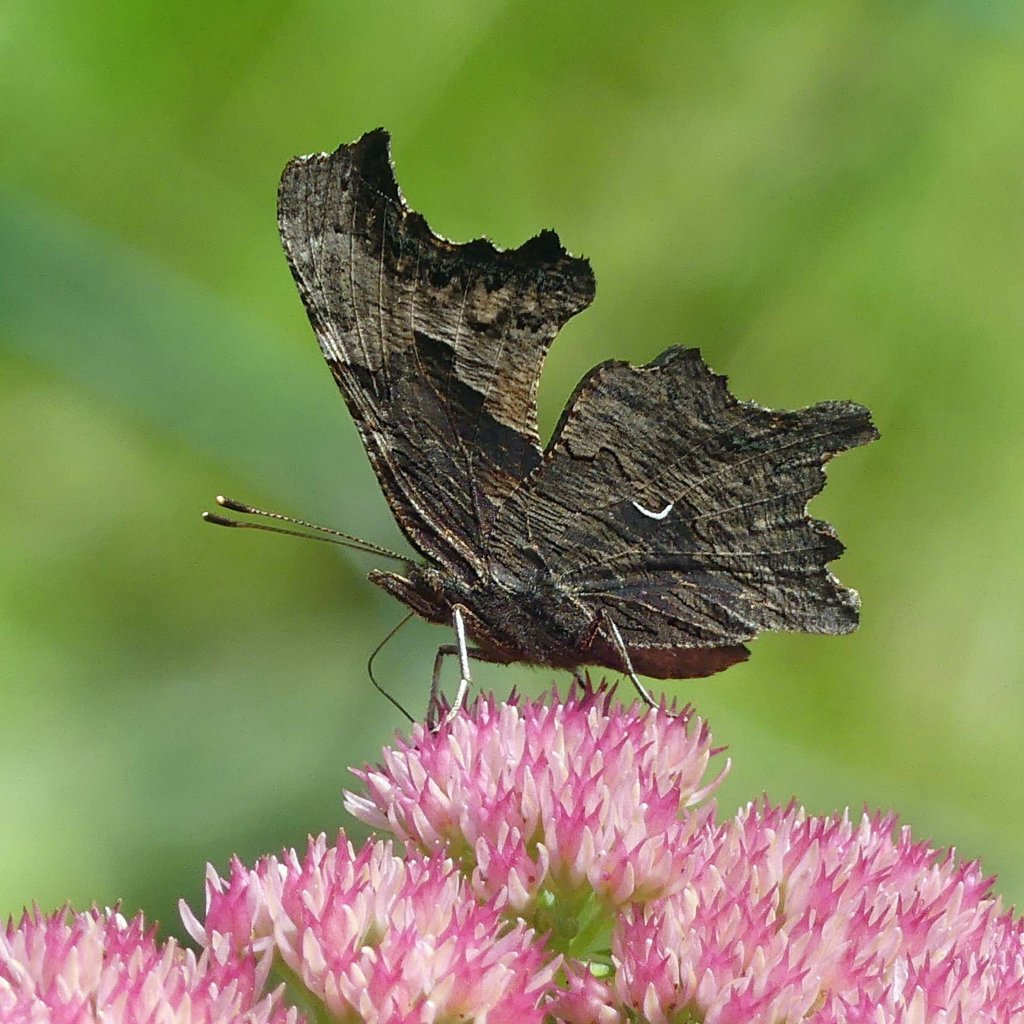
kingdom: Animalia
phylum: Arthropoda
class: Insecta
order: Lepidoptera
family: Nymphalidae
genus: Polygonia
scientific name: Polygonia progne
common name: Gray Comma
